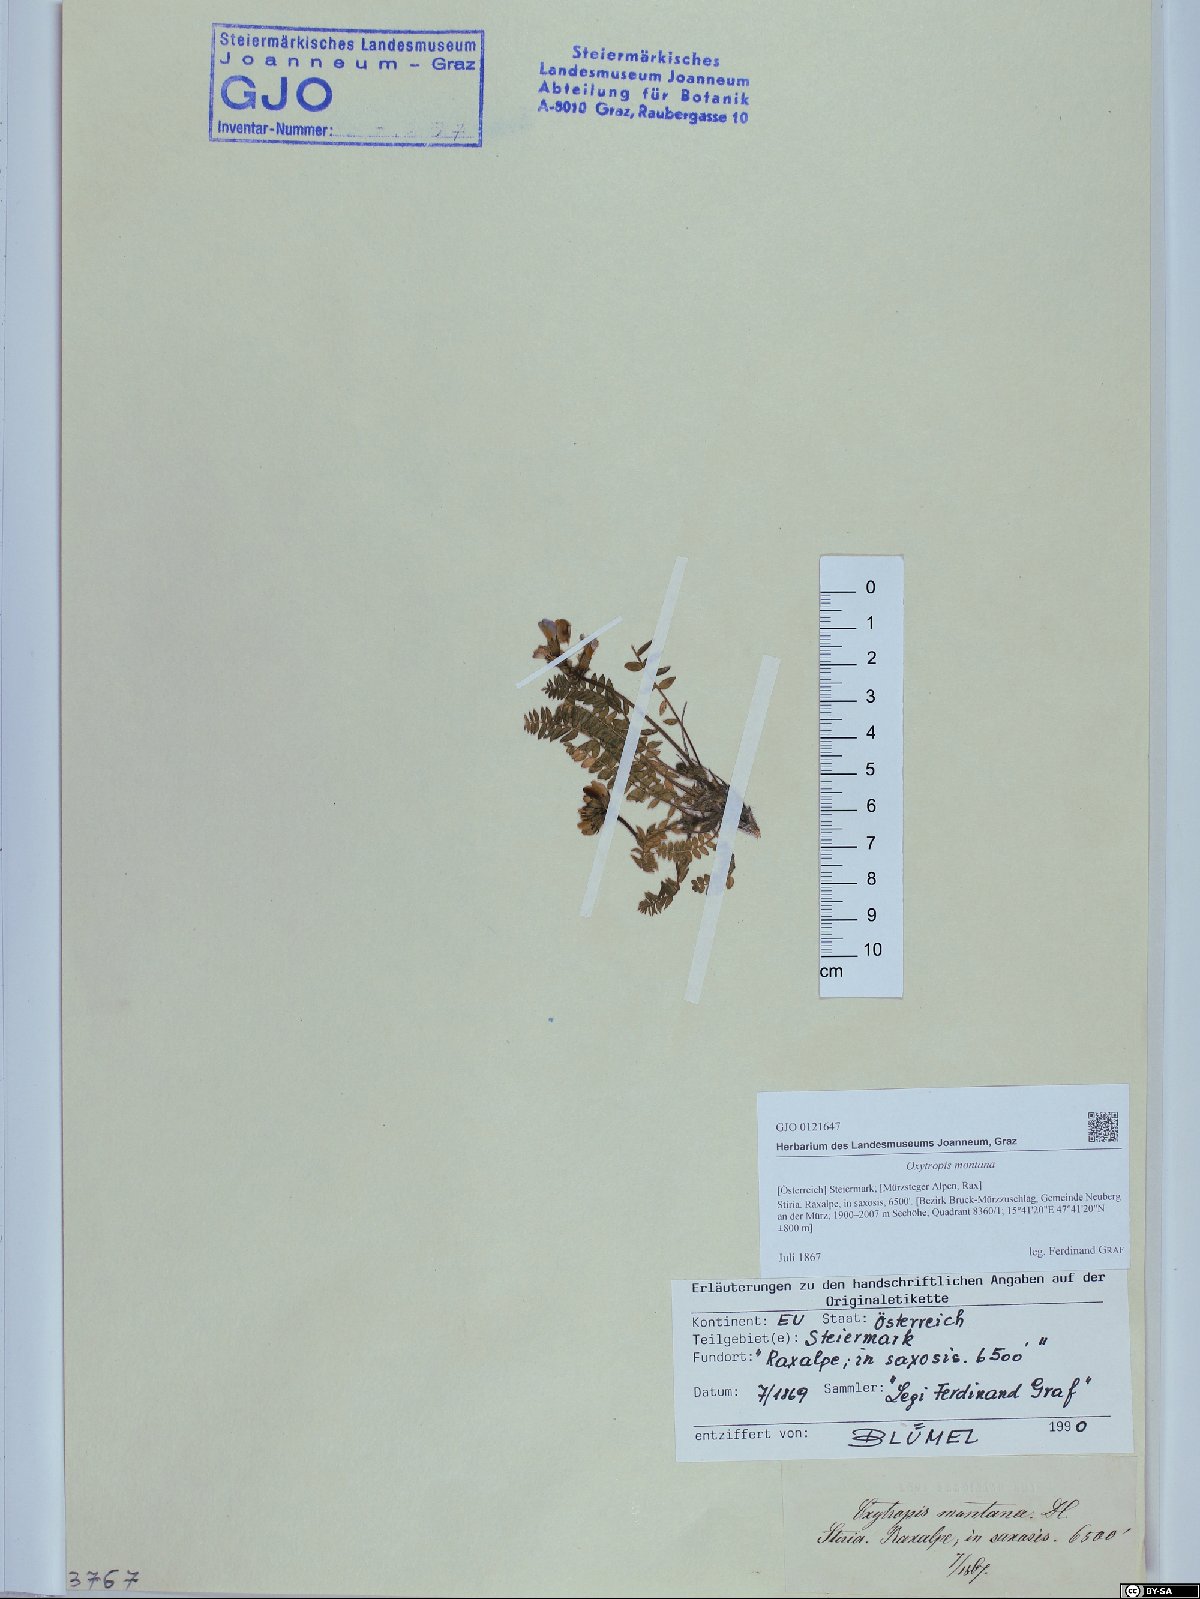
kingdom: Plantae
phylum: Tracheophyta
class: Magnoliopsida
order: Fabales
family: Fabaceae
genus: Oxytropis
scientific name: Oxytropis montana
